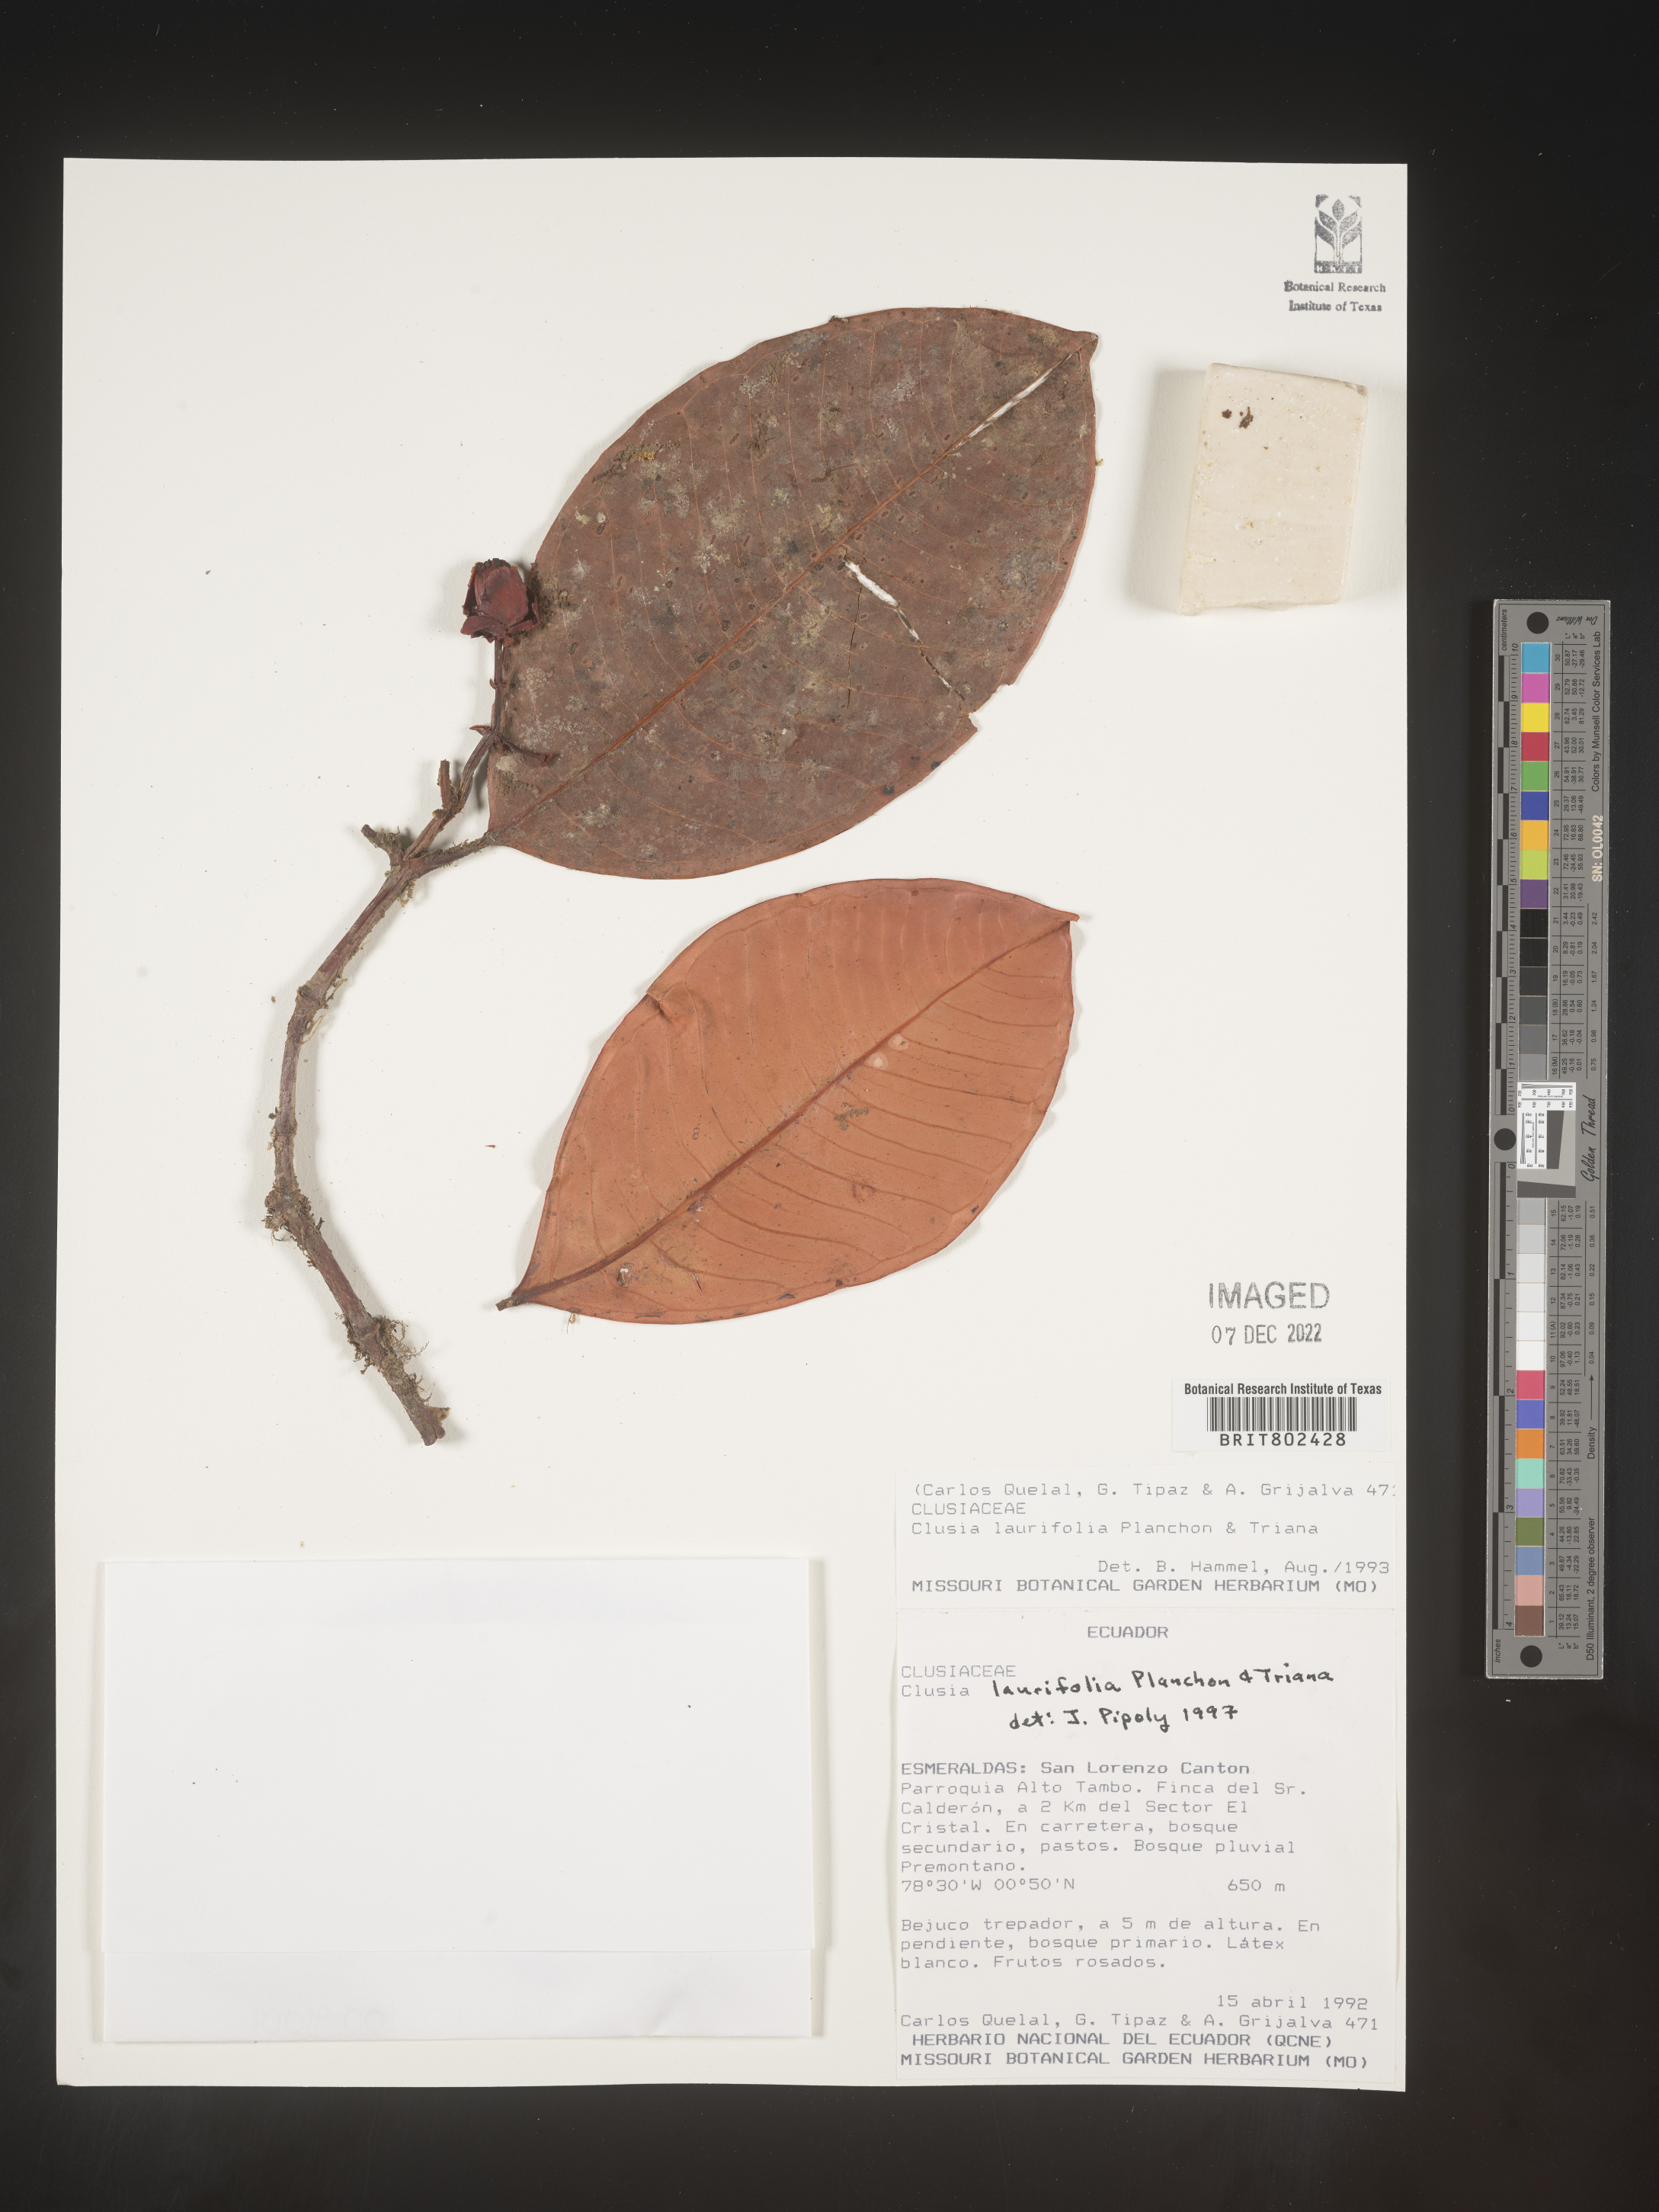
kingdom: Plantae
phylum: Tracheophyta
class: Magnoliopsida
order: Malpighiales
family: Clusiaceae
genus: Clusia
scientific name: Clusia laurifolia
